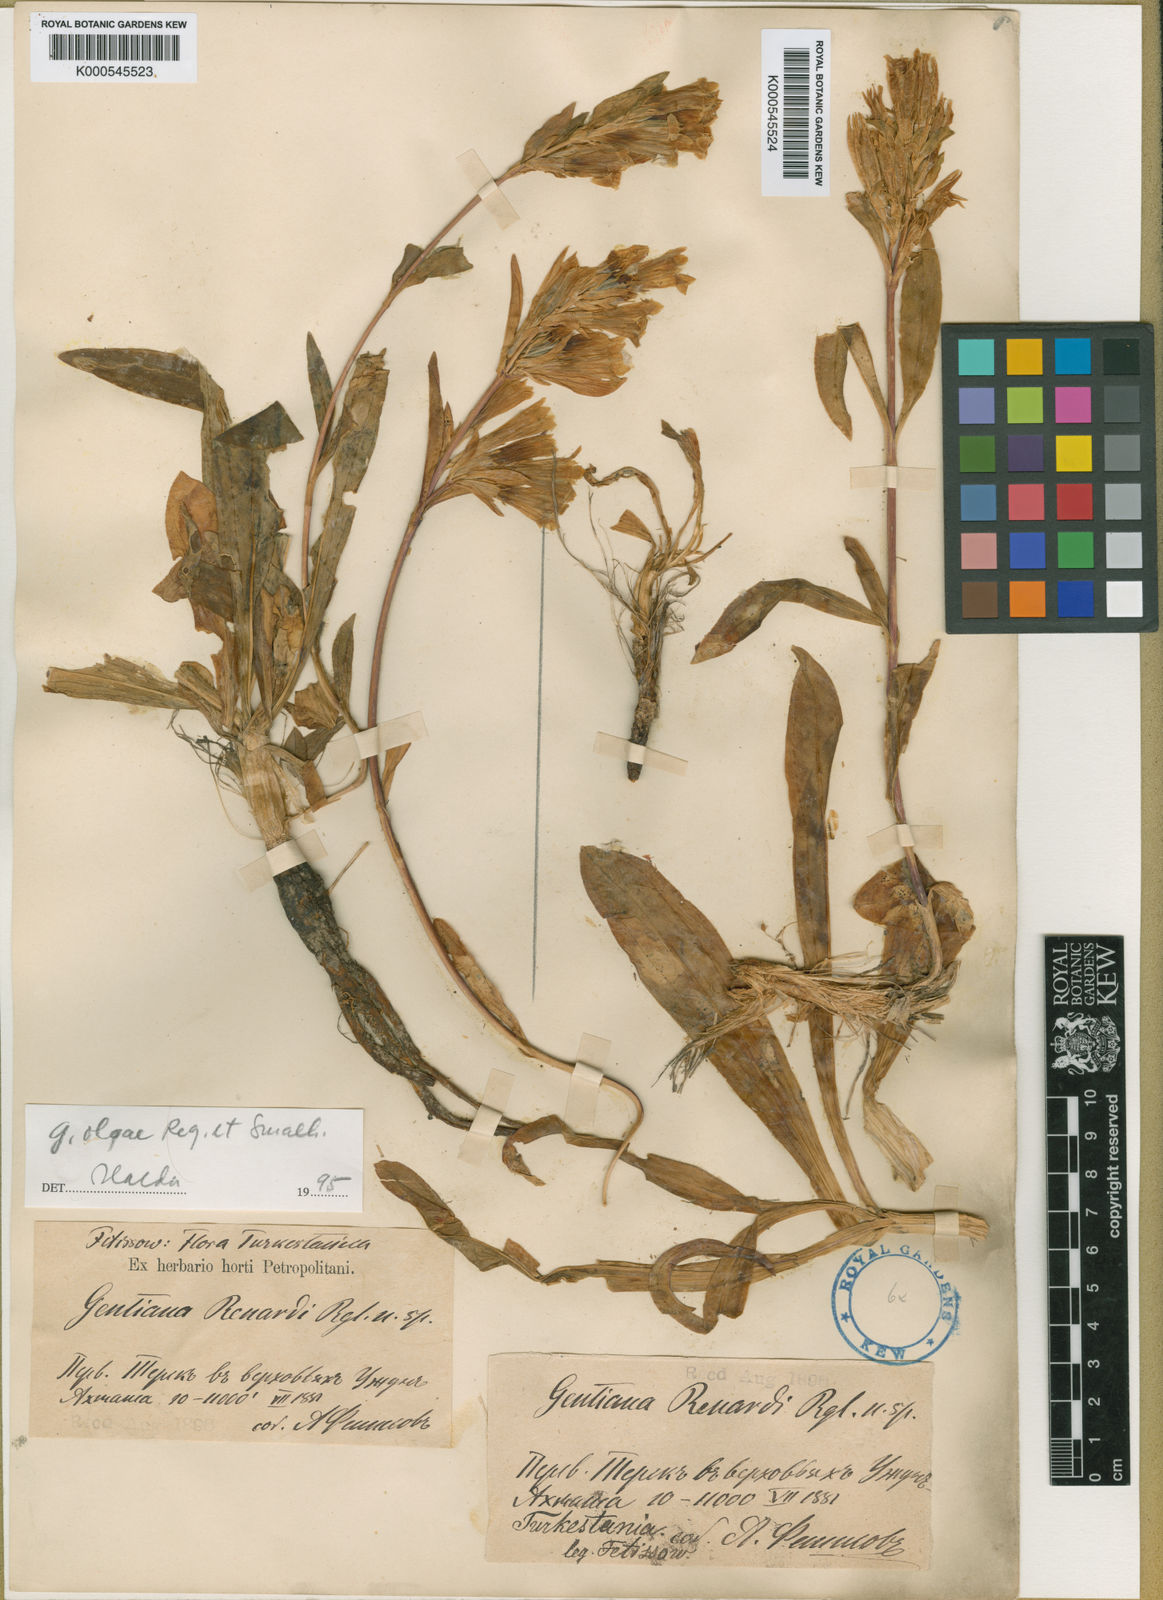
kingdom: Plantae
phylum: Tracheophyta
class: Magnoliopsida
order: Gentianales
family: Gentianaceae
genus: Gentiana
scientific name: Gentiana olgae
